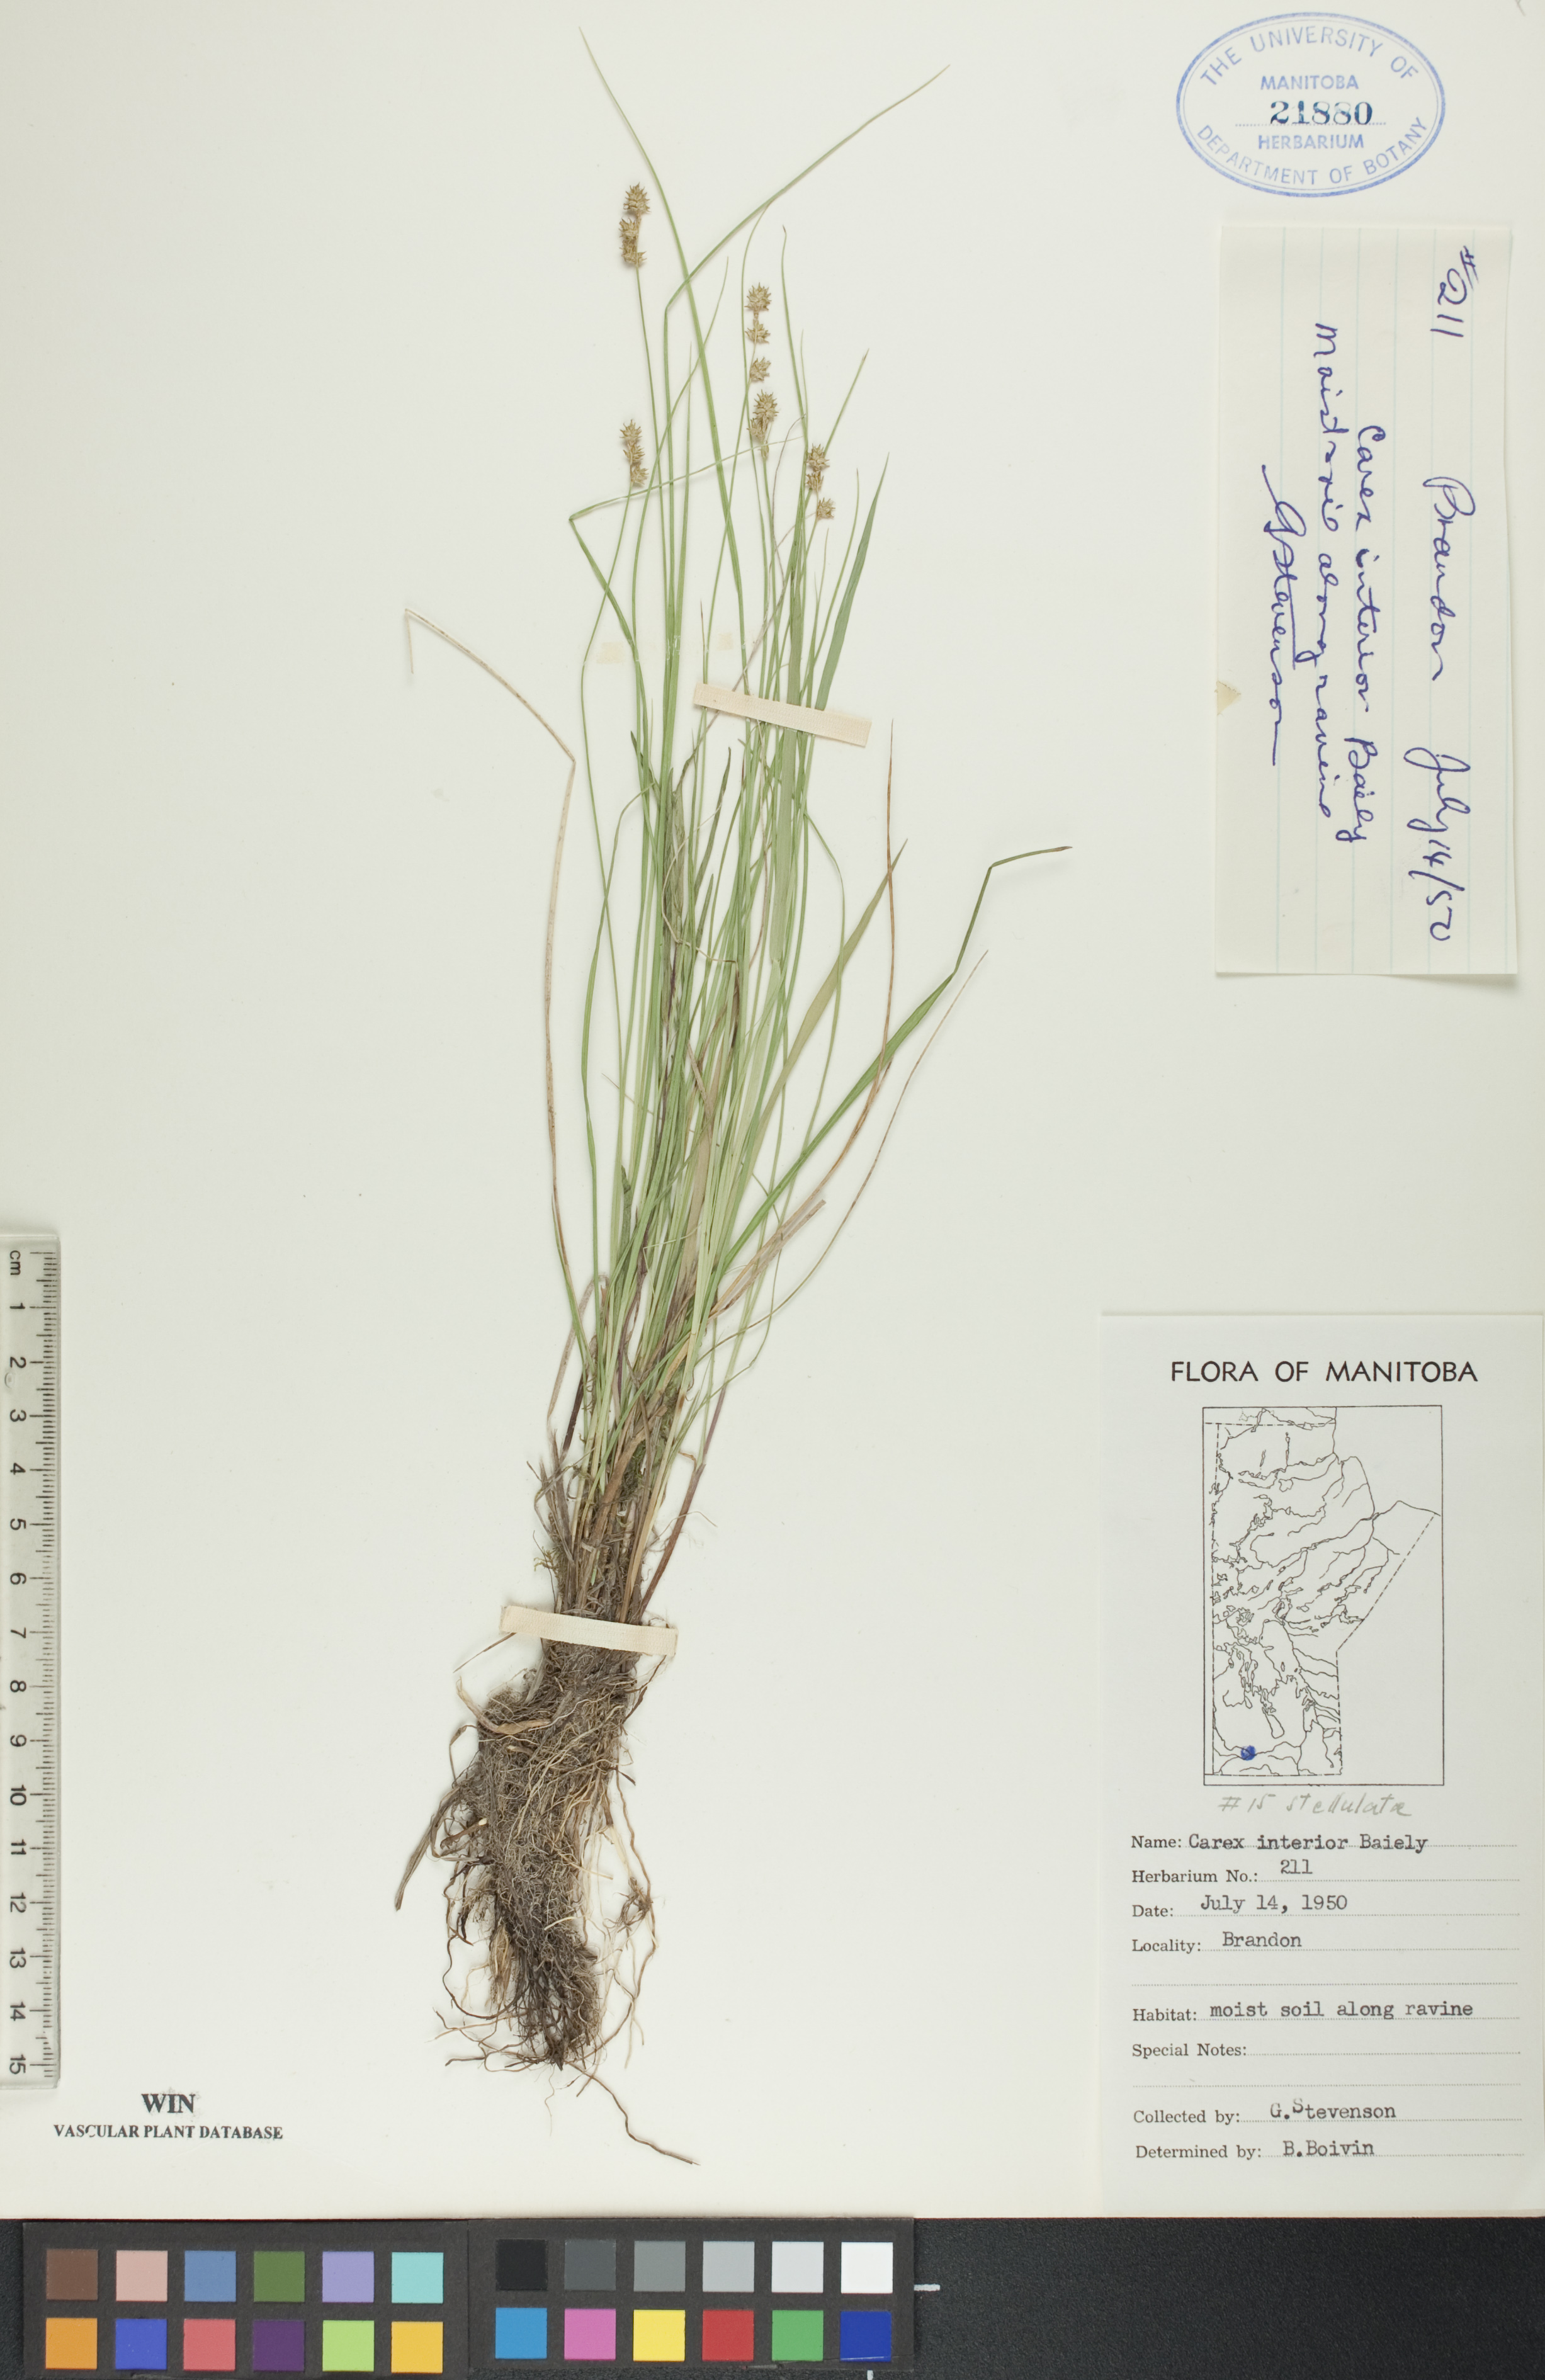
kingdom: Plantae
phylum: Tracheophyta
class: Liliopsida
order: Poales
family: Cyperaceae
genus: Carex
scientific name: Carex interior
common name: Inland sedge
